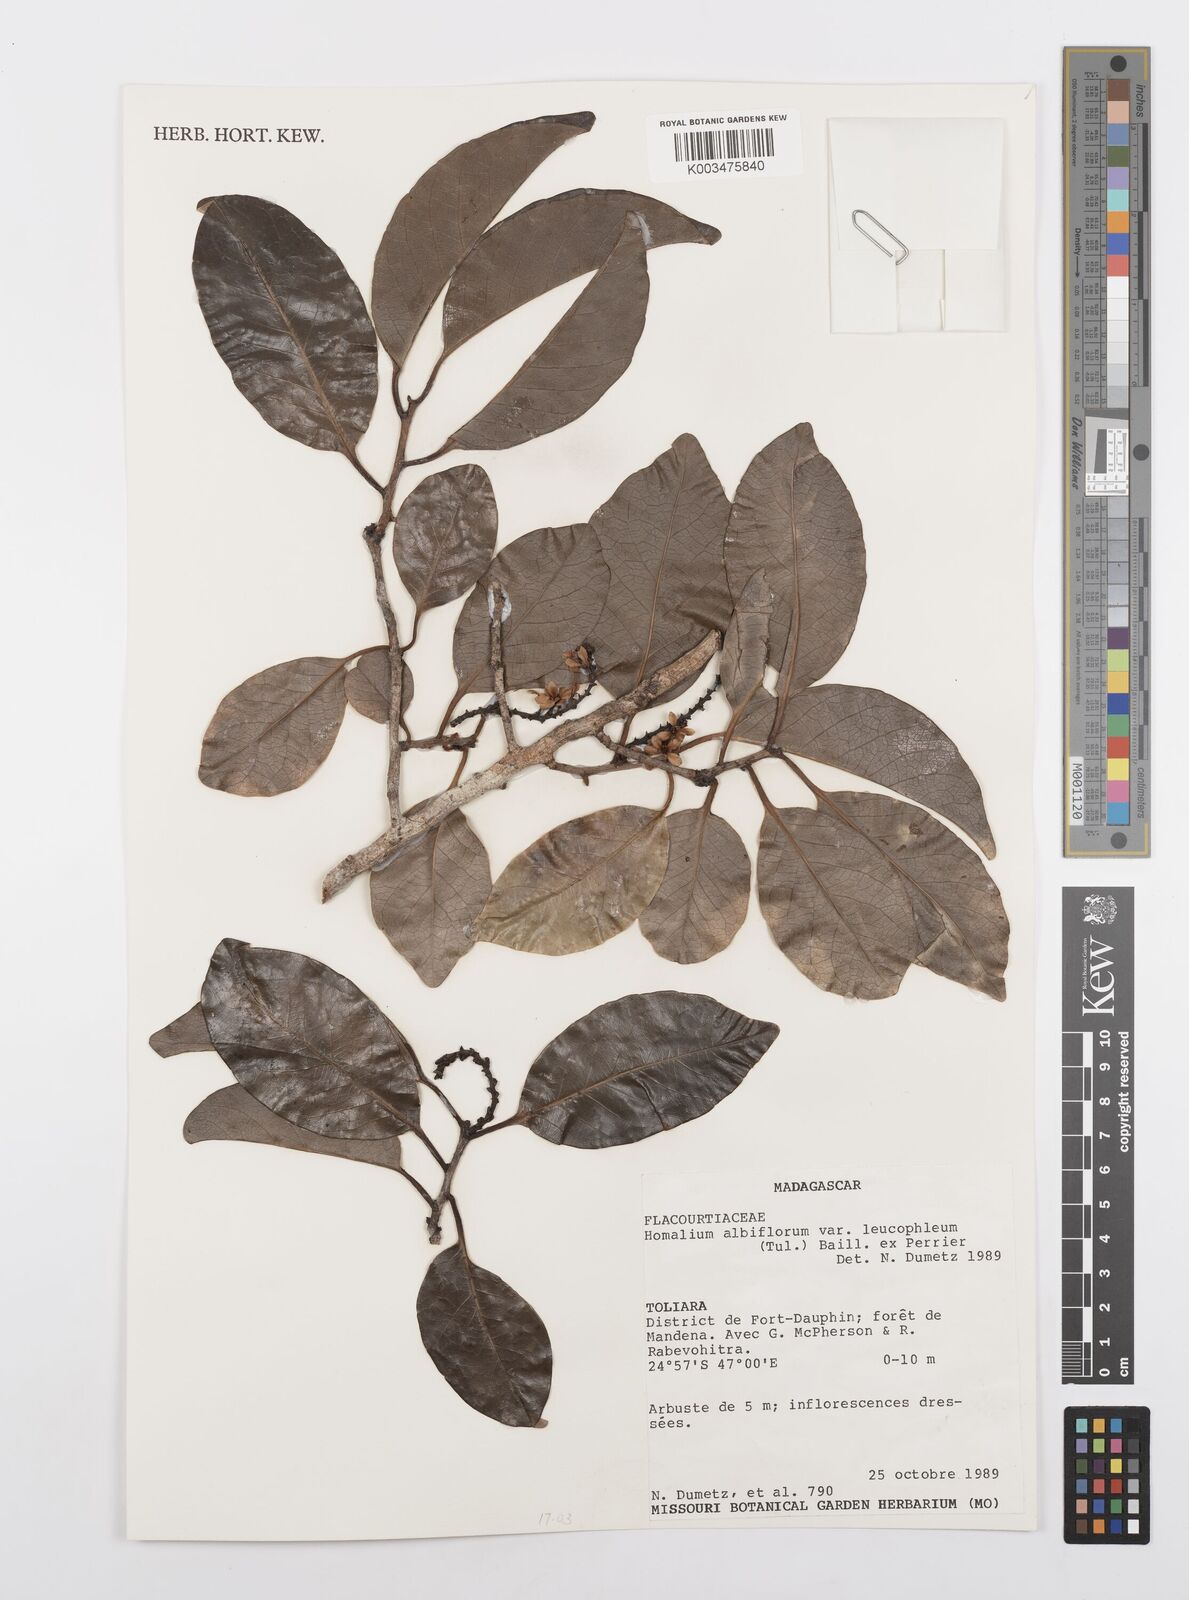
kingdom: Plantae
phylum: Tracheophyta
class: Magnoliopsida
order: Malpighiales
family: Salicaceae
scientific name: Salicaceae
